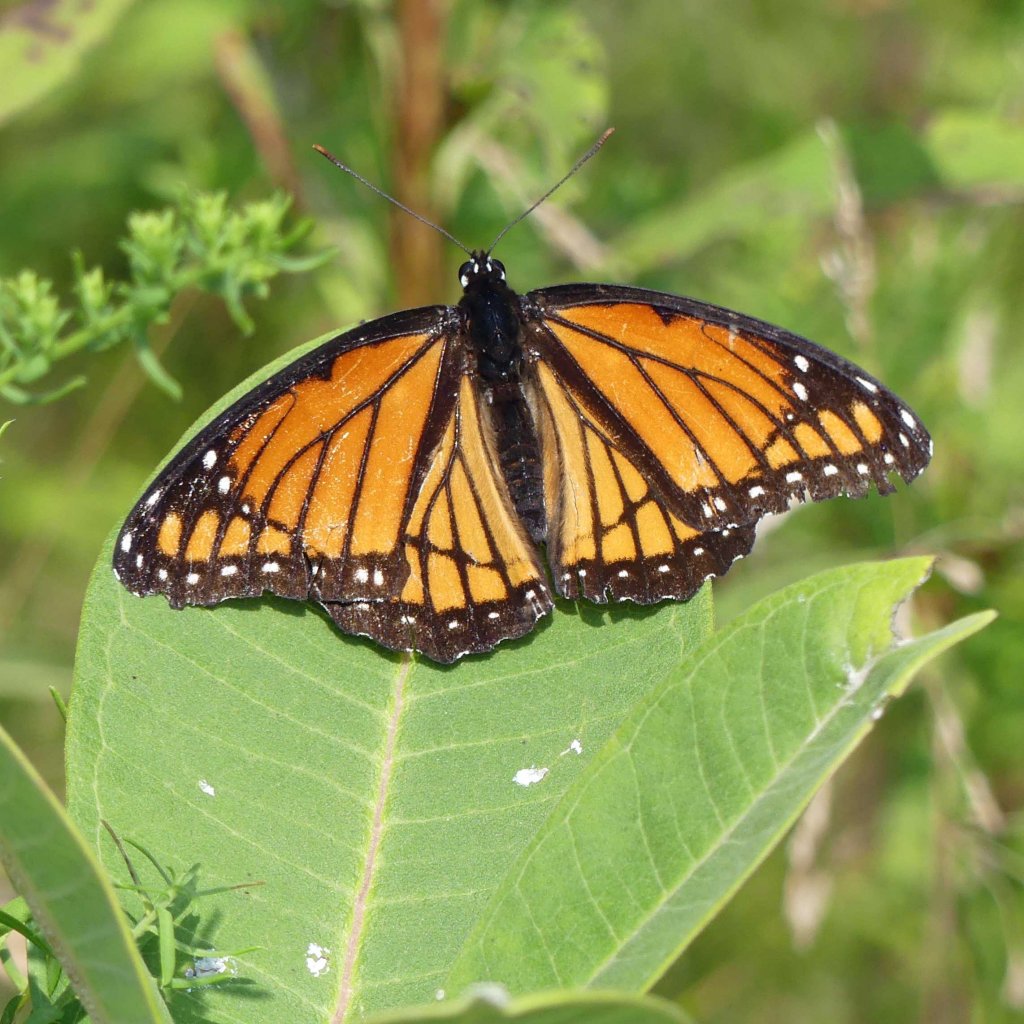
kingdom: Animalia
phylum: Arthropoda
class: Insecta
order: Lepidoptera
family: Nymphalidae
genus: Limenitis
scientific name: Limenitis archippus
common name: Viceroy
